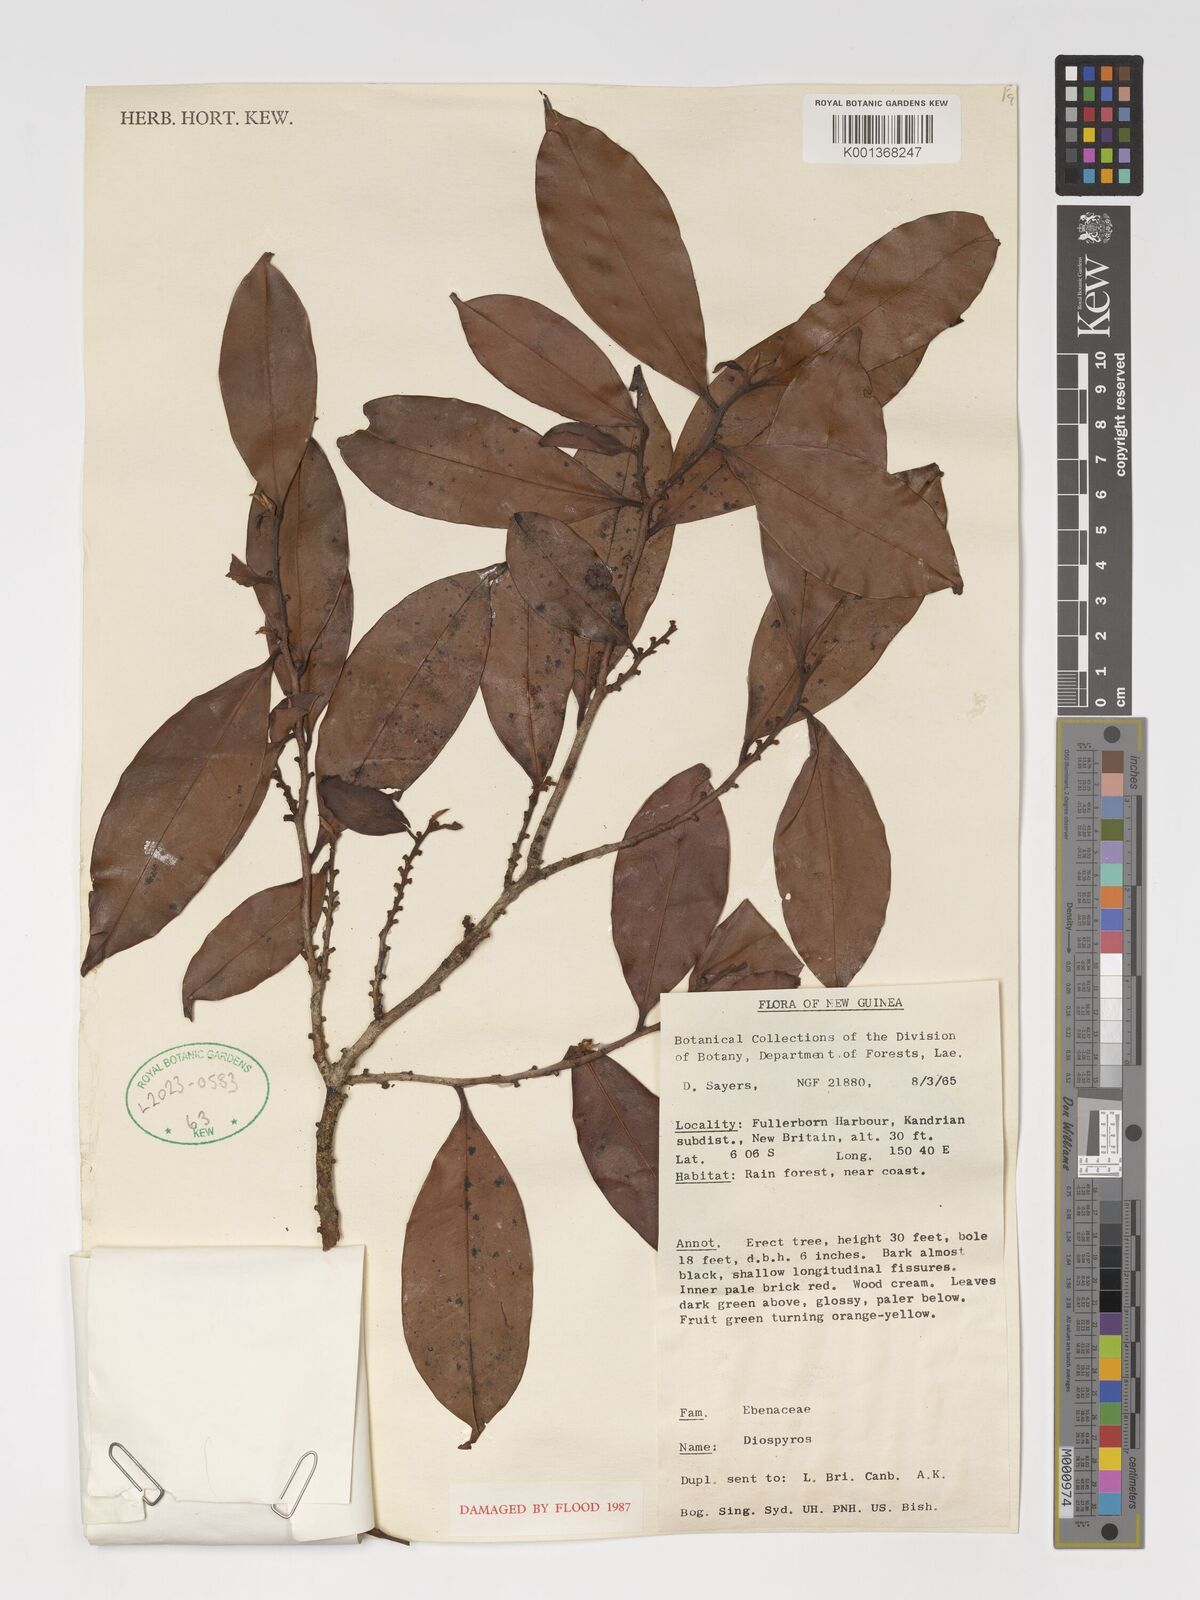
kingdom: Plantae
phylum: Tracheophyta
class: Magnoliopsida
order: Ericales
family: Ebenaceae
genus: Diospyros
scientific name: Diospyros
